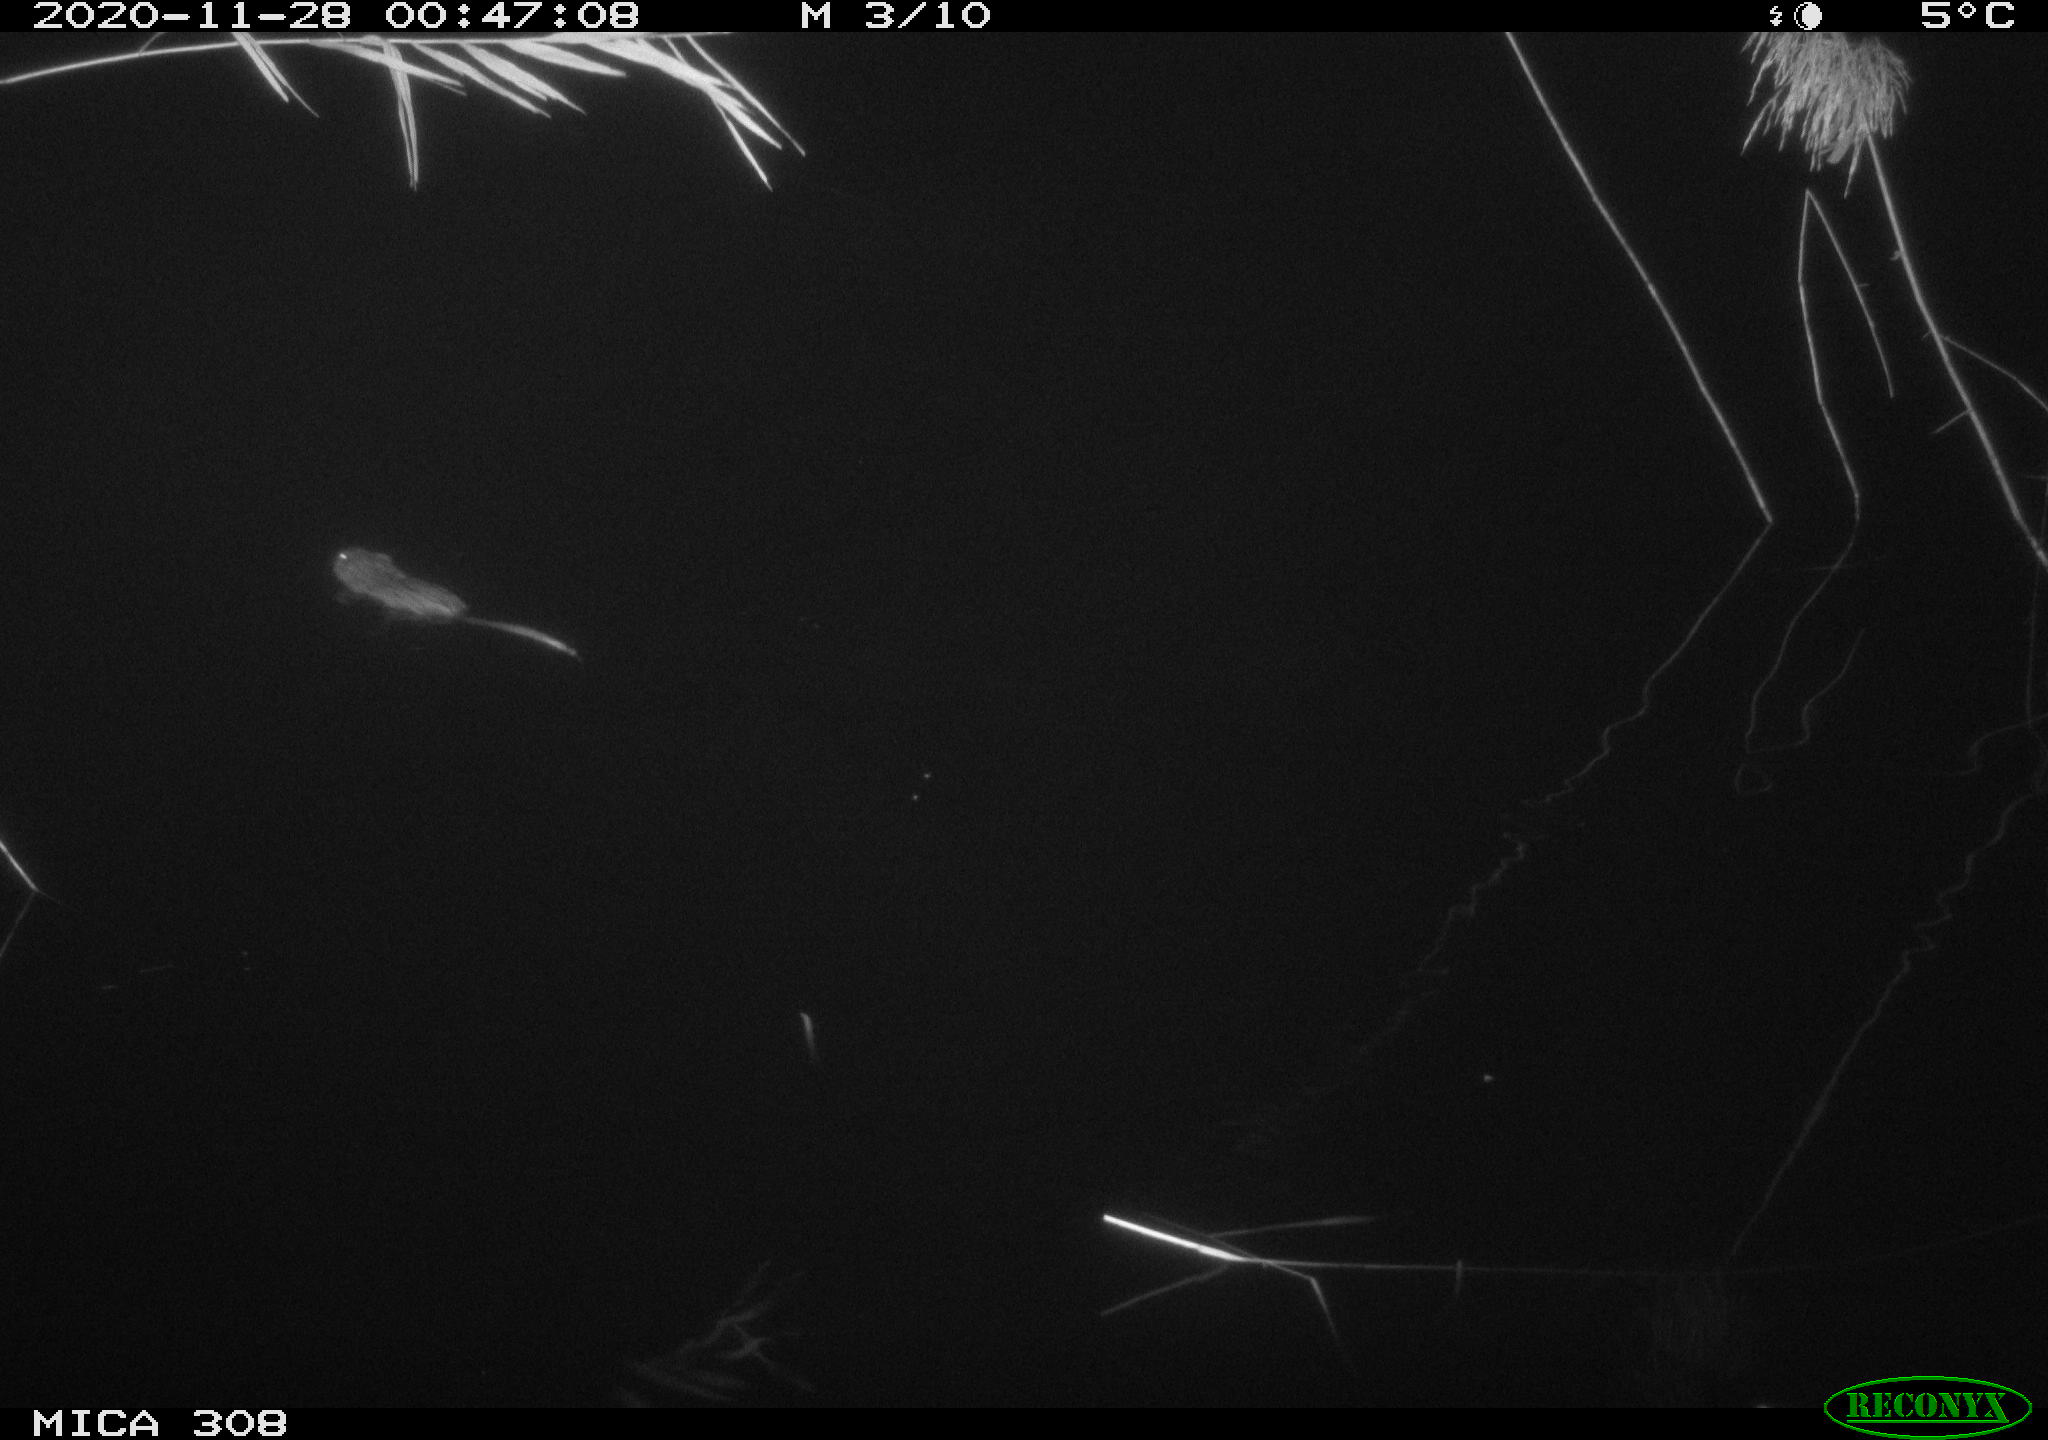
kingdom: Animalia
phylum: Chordata
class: Mammalia
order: Rodentia
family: Cricetidae
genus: Ondatra
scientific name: Ondatra zibethicus
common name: Muskrat
